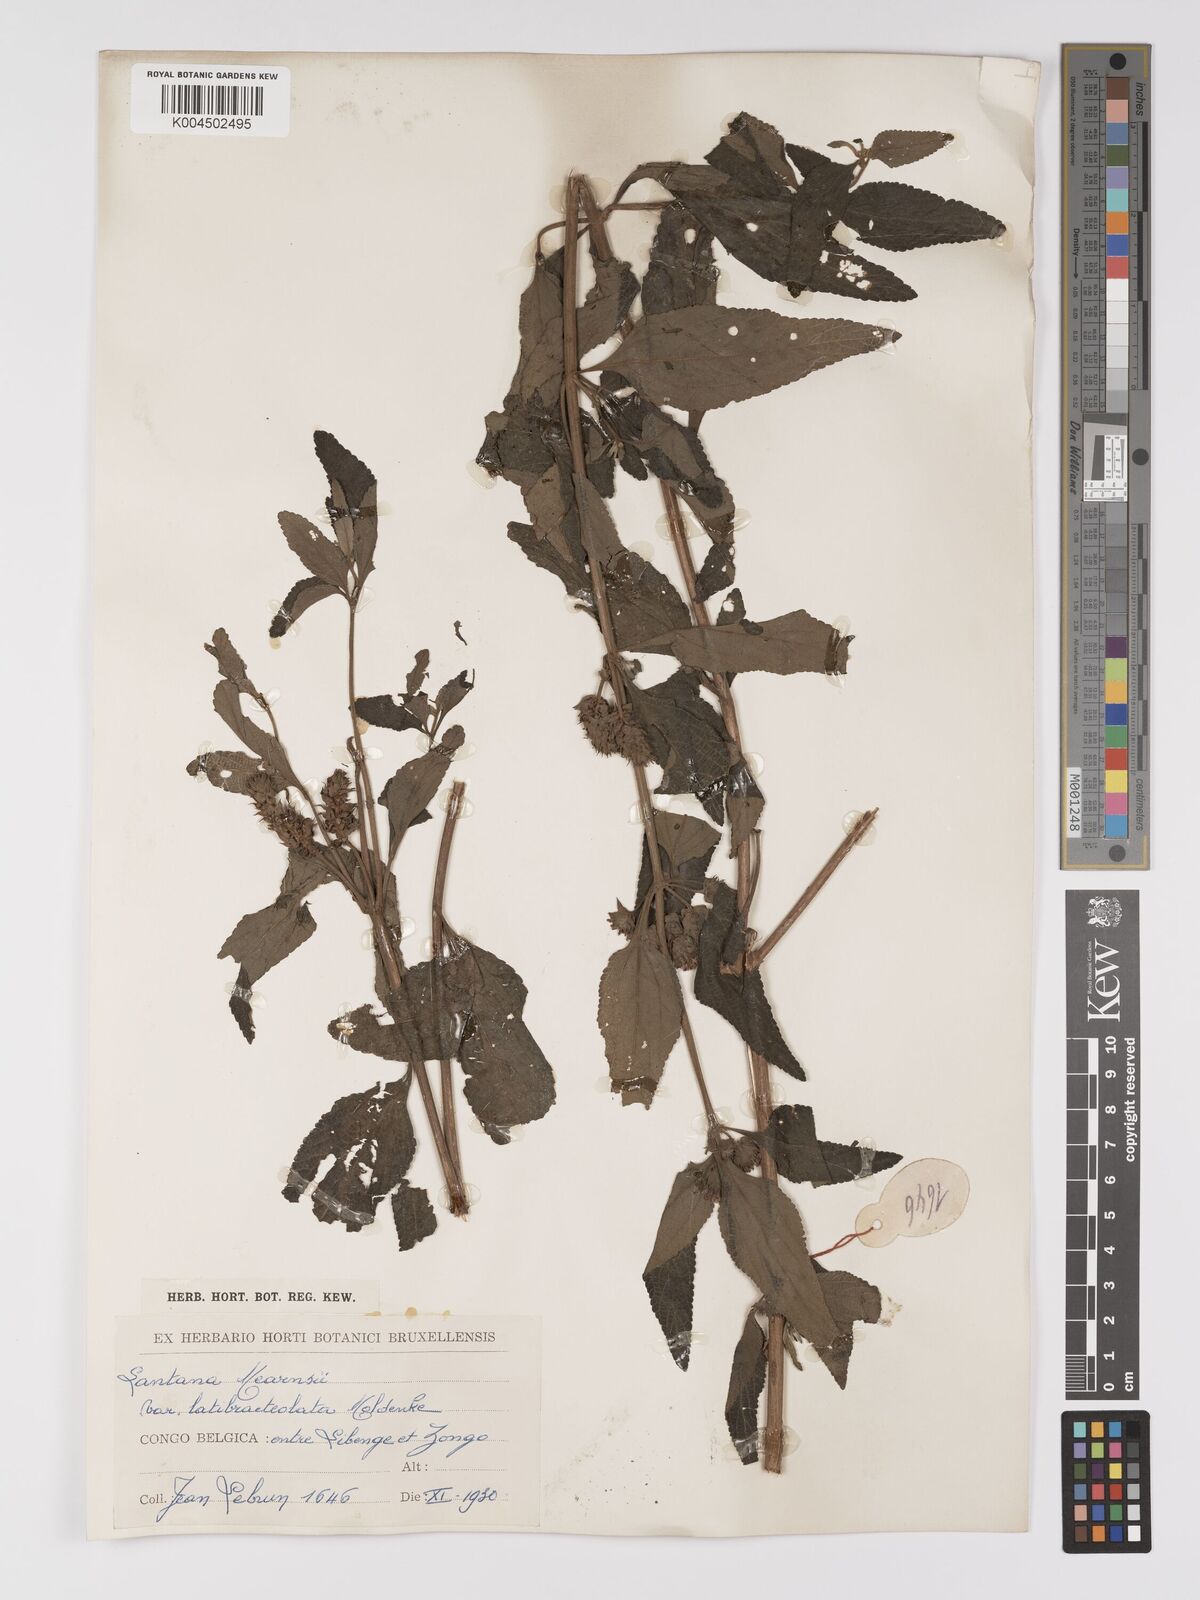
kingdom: Plantae
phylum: Tracheophyta
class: Magnoliopsida
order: Lamiales
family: Verbenaceae
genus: Lantana
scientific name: Lantana ukambensis
